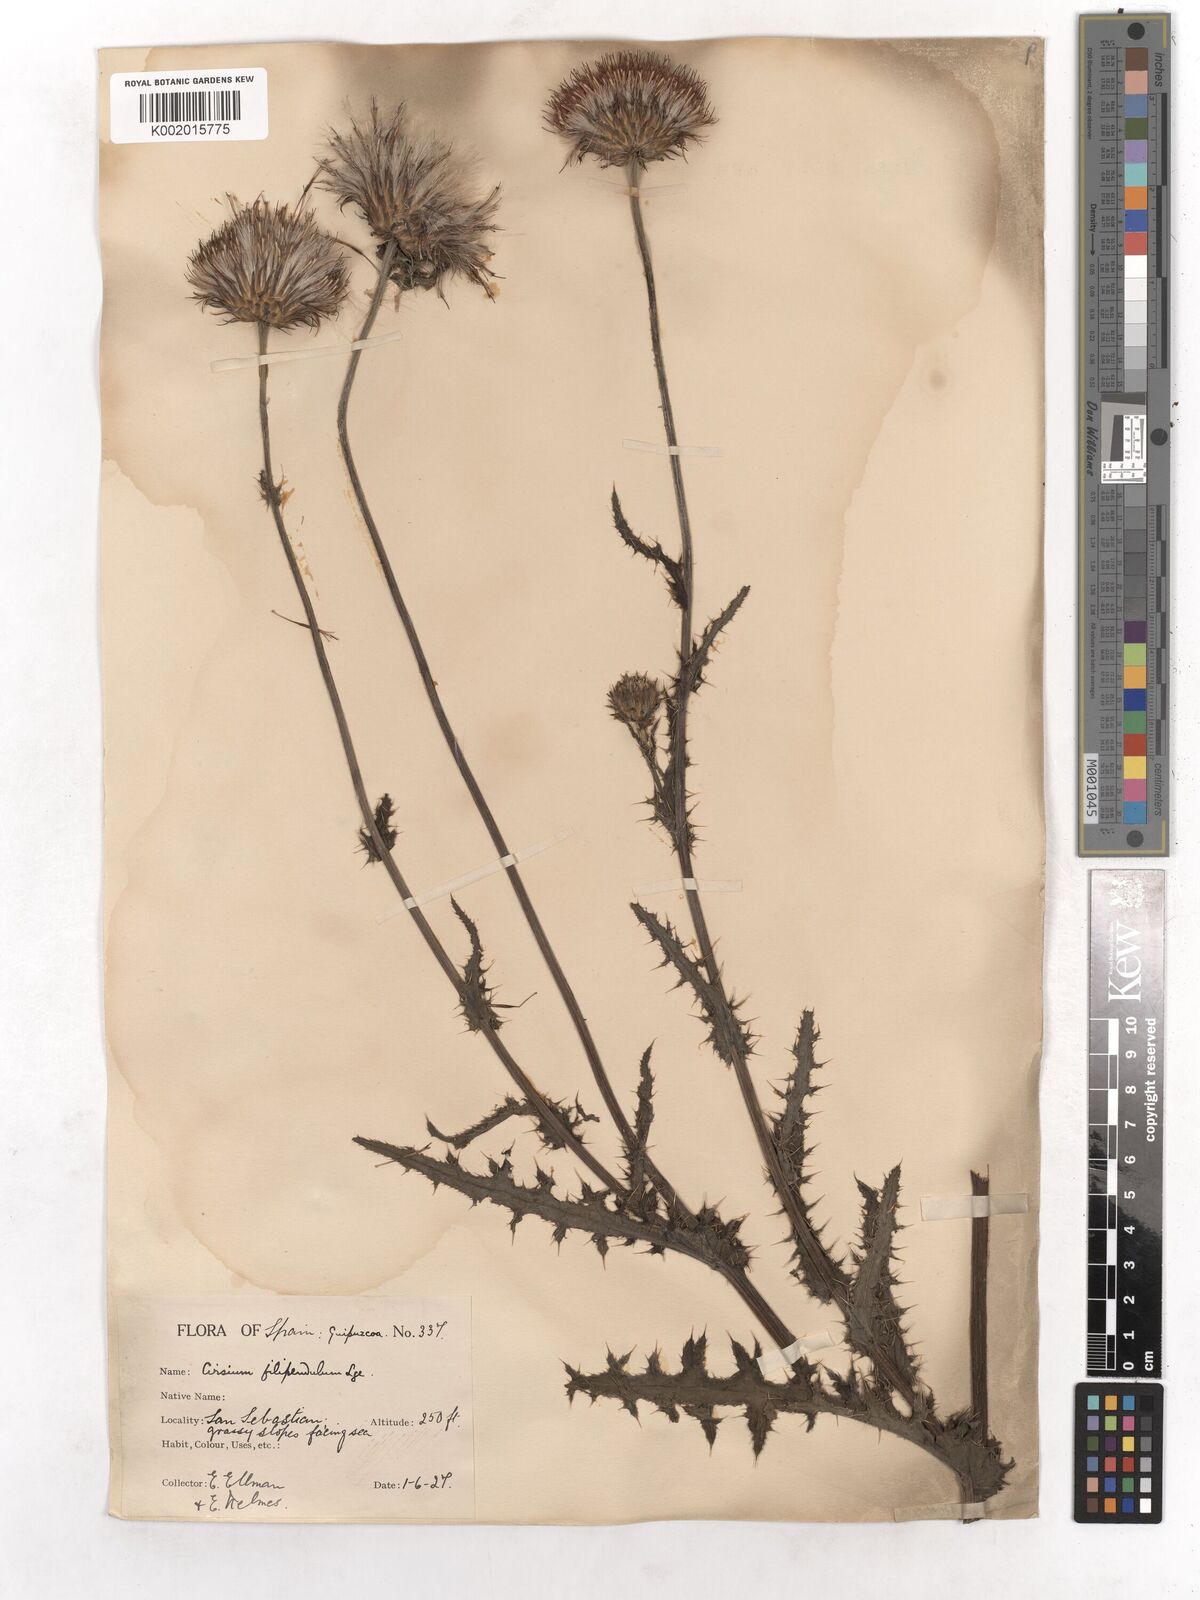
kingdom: Plantae
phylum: Tracheophyta
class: Magnoliopsida
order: Asterales
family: Asteraceae
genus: Cirsium
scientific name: Cirsium filipendulum
